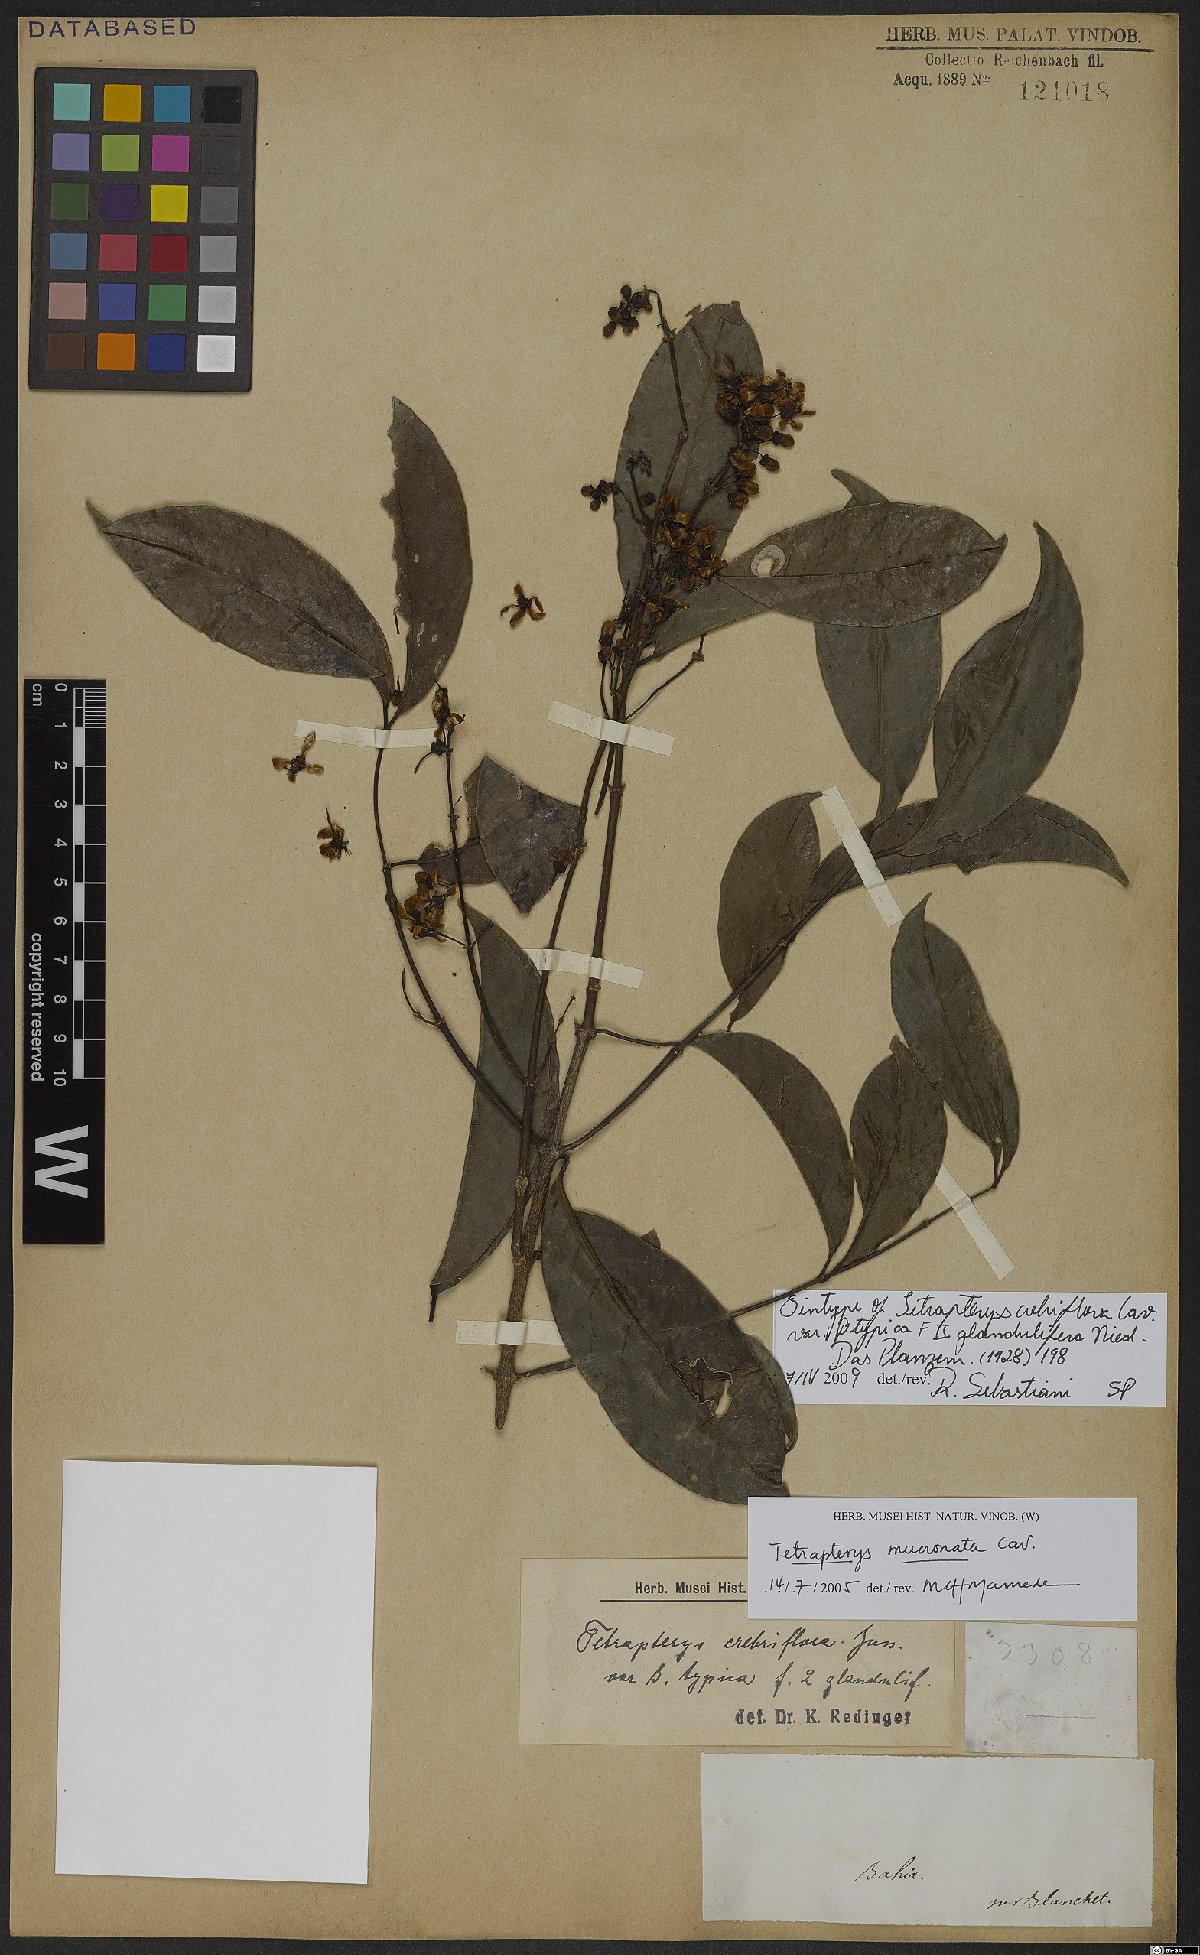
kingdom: Plantae
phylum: Tracheophyta
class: Magnoliopsida
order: Malpighiales
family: Malpighiaceae
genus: Tetrapterys
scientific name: Tetrapterys mucronata
